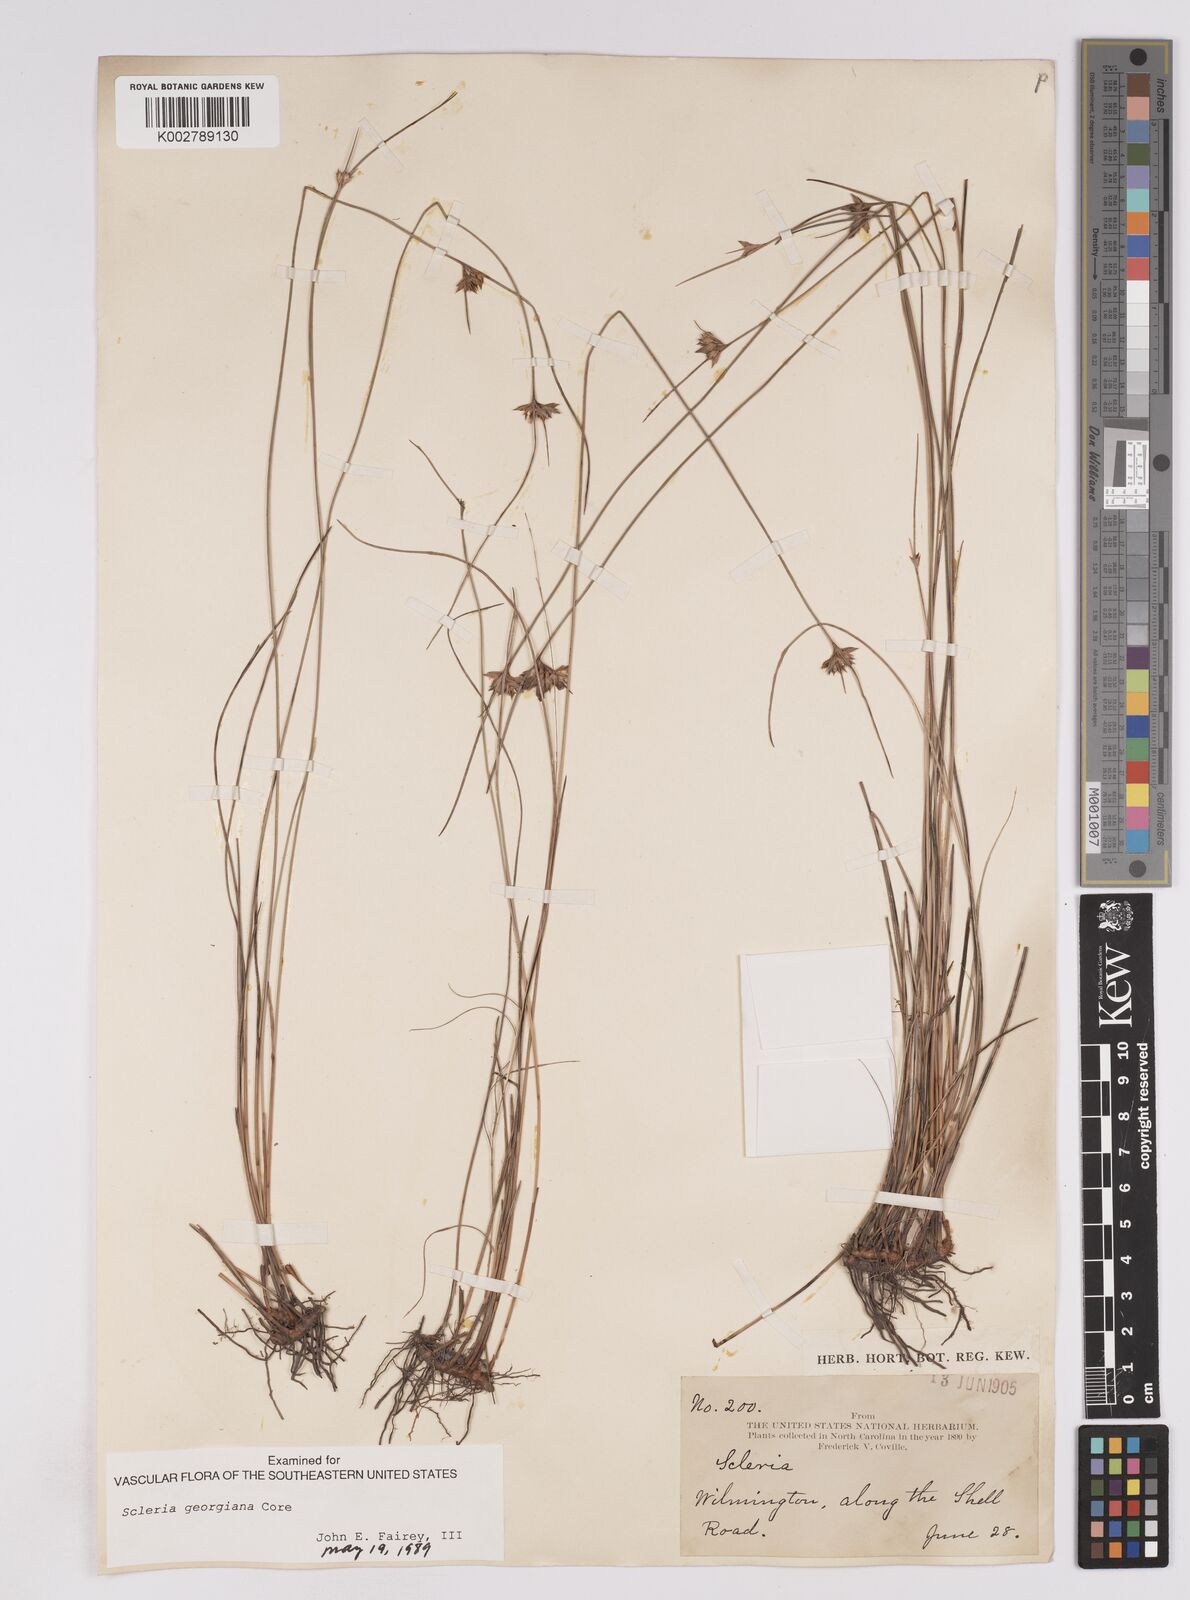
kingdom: Plantae
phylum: Tracheophyta
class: Liliopsida
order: Poales
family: Cyperaceae
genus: Scleria
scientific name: Scleria
